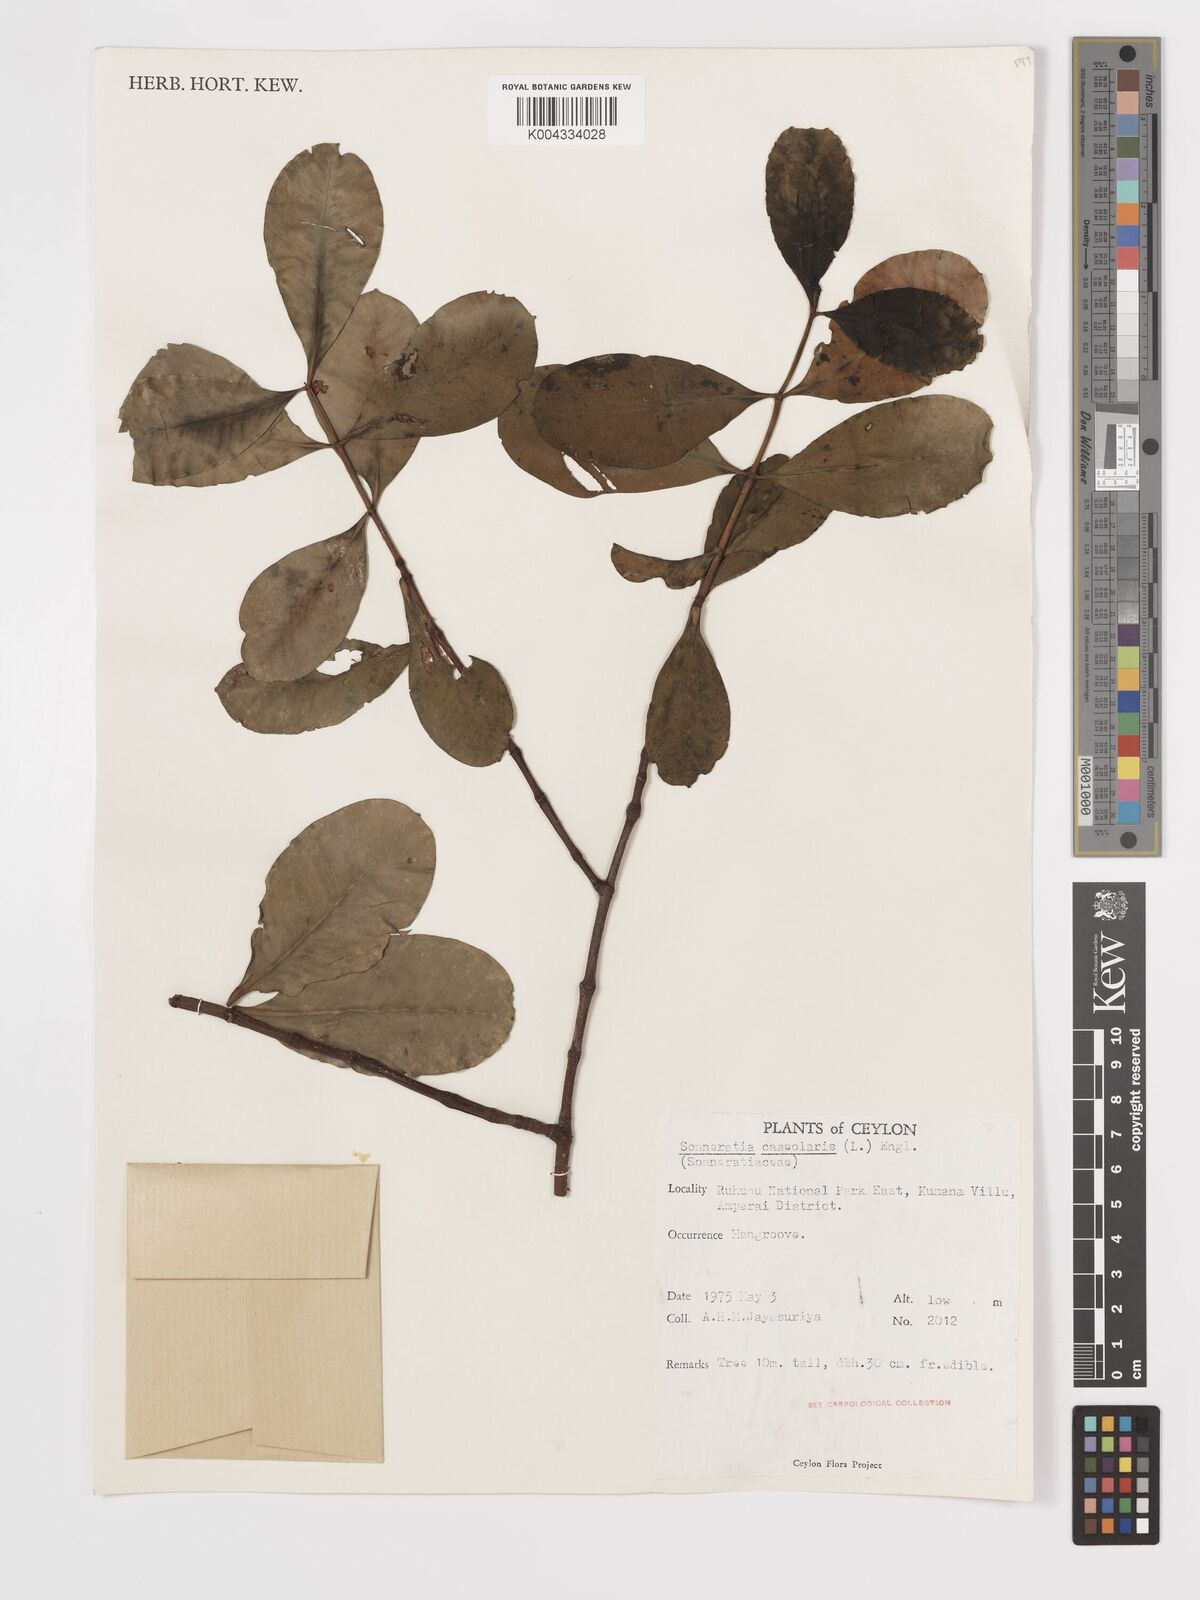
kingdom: Plantae
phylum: Tracheophyta
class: Magnoliopsida
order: Myrtales
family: Lythraceae
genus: Sonneratia
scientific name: Sonneratia caseolaris
